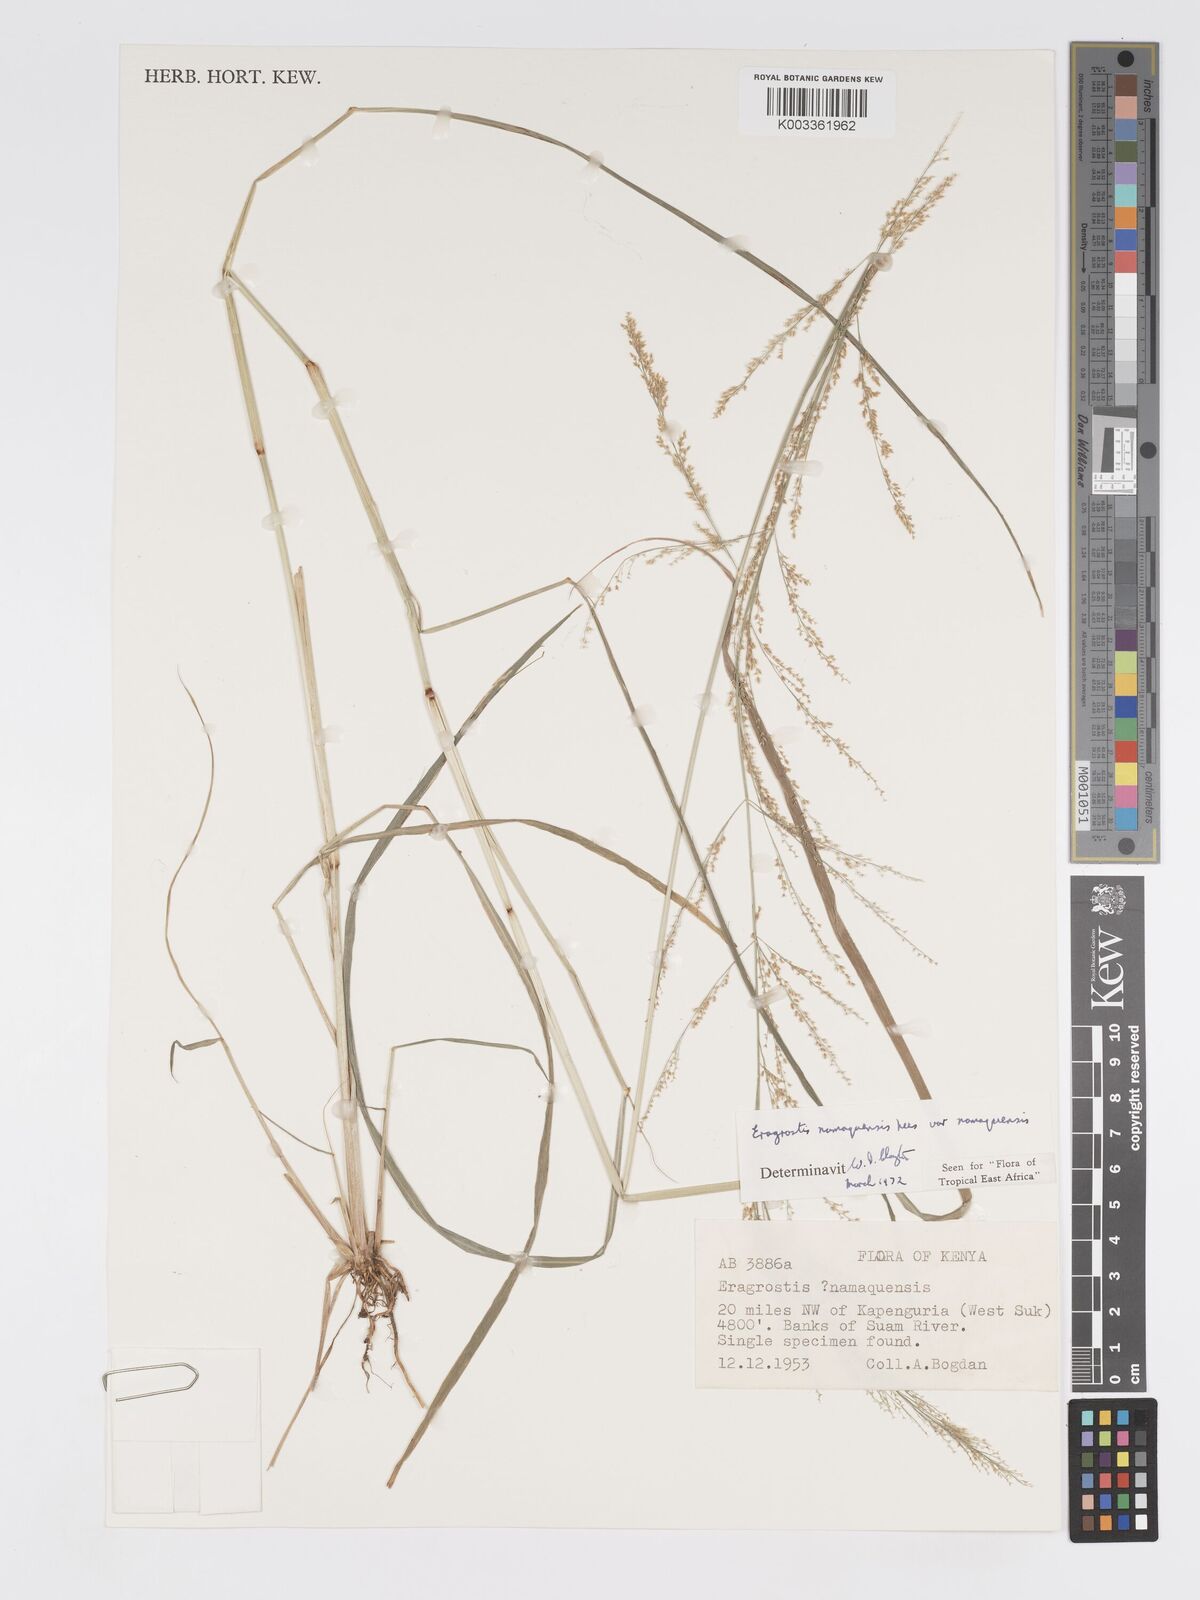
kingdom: Plantae
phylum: Tracheophyta
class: Liliopsida
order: Poales
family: Poaceae
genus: Eragrostis
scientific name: Eragrostis japonica
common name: Pond lovegrass
